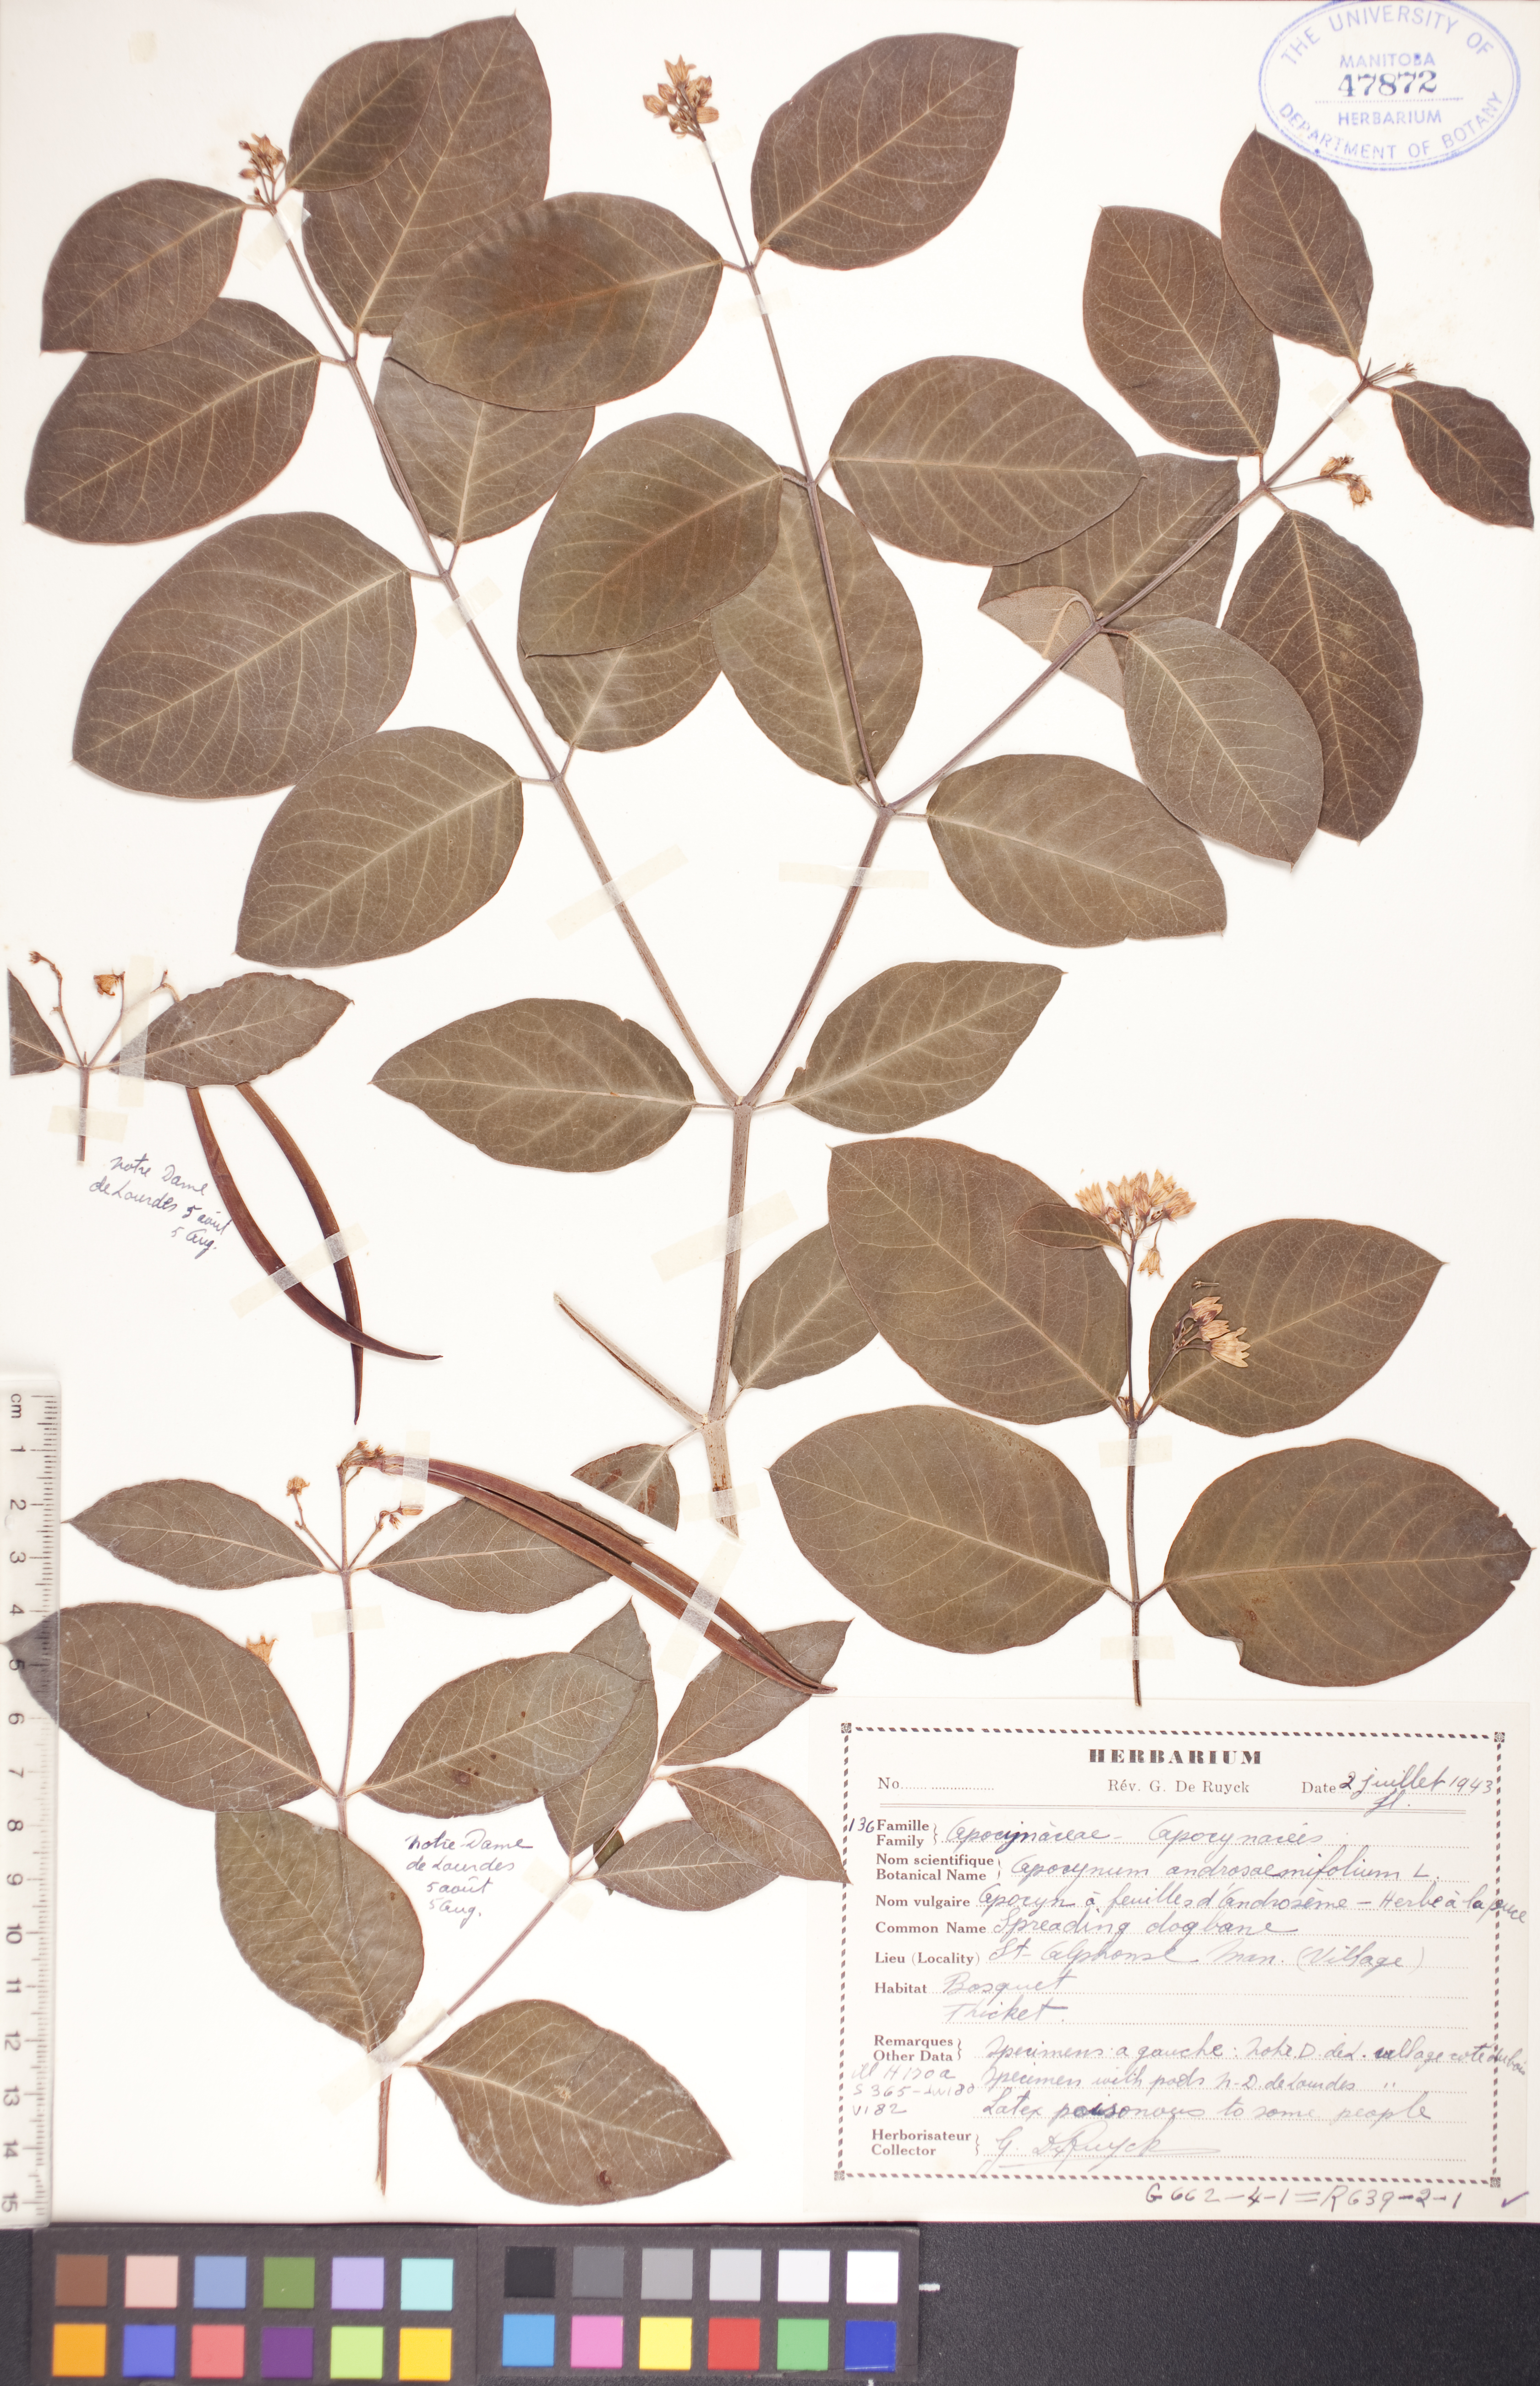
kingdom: Plantae
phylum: Tracheophyta
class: Magnoliopsida
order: Gentianales
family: Apocynaceae
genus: Apocynum
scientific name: Apocynum androsaemifolium
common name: Spreading dogbane
